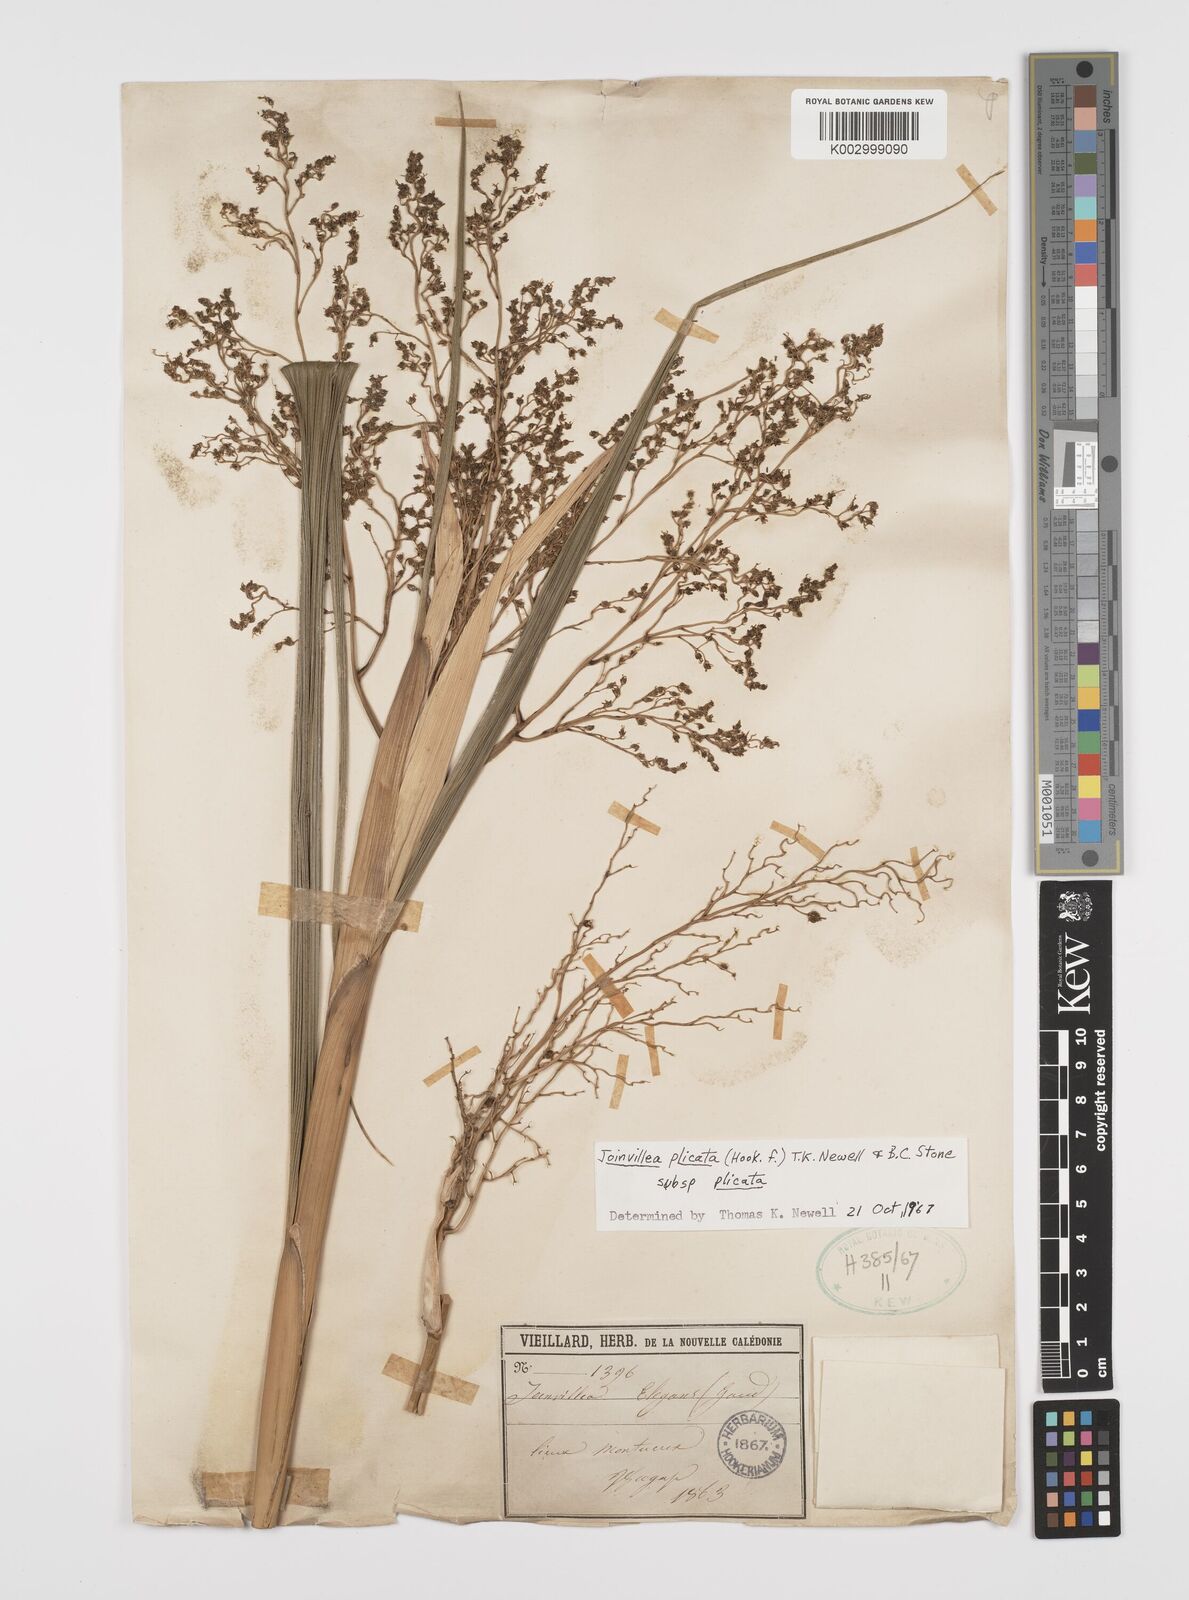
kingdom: Plantae
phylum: Tracheophyta
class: Liliopsida
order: Poales
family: Joinvilleaceae
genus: Joinvillea
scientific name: Joinvillea plicata
